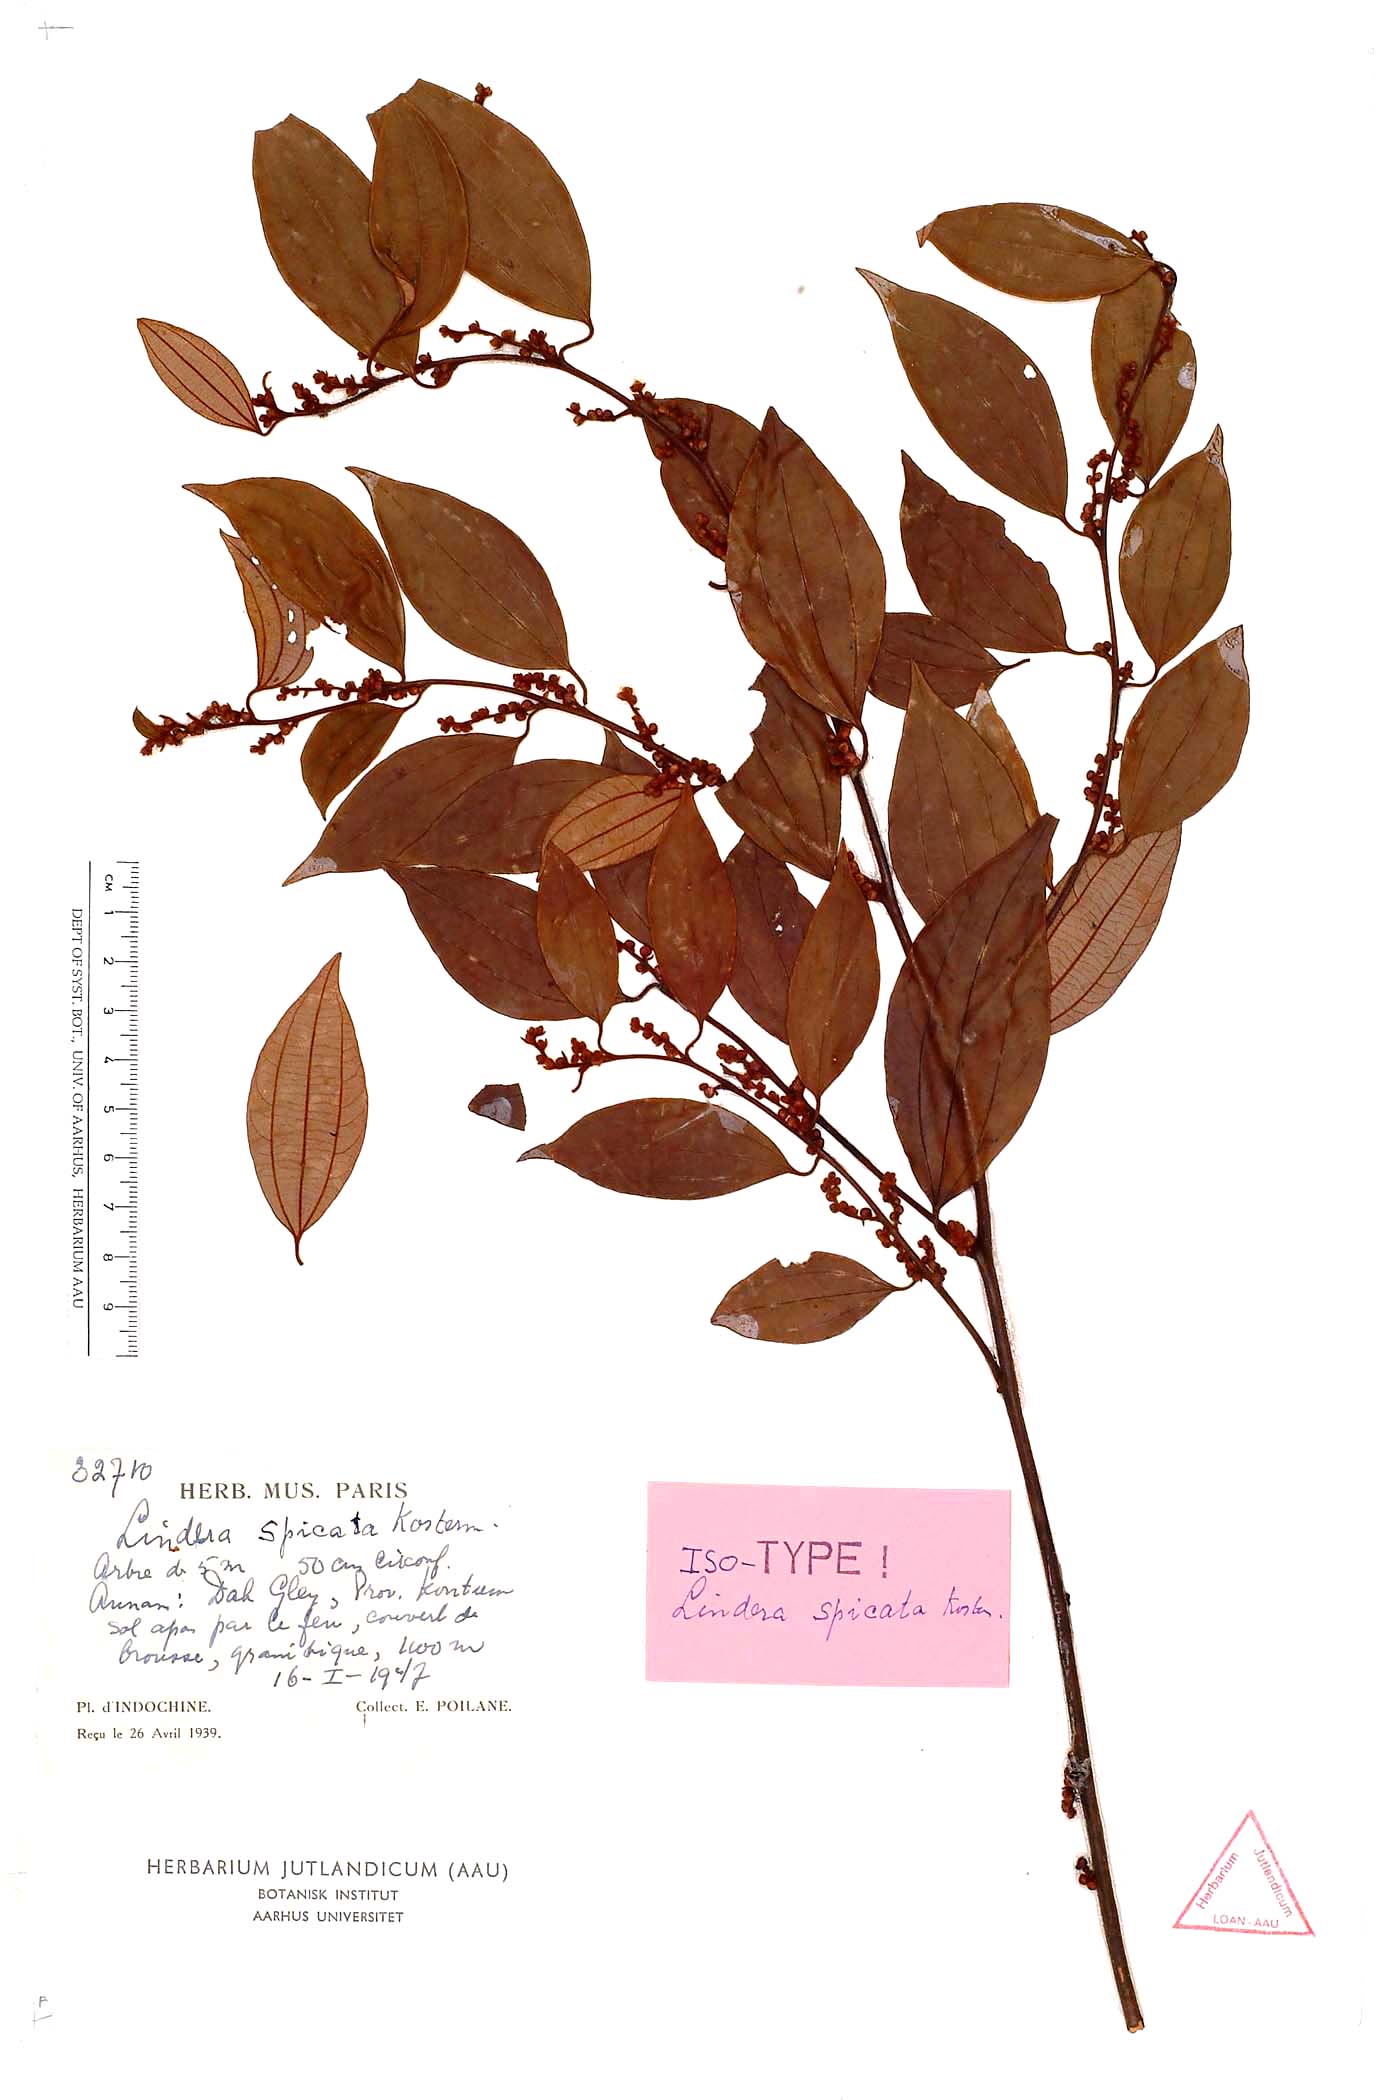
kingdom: Plantae
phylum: Tracheophyta
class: Magnoliopsida
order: Laurales
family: Lauraceae
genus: Lindera
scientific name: Lindera spicata
